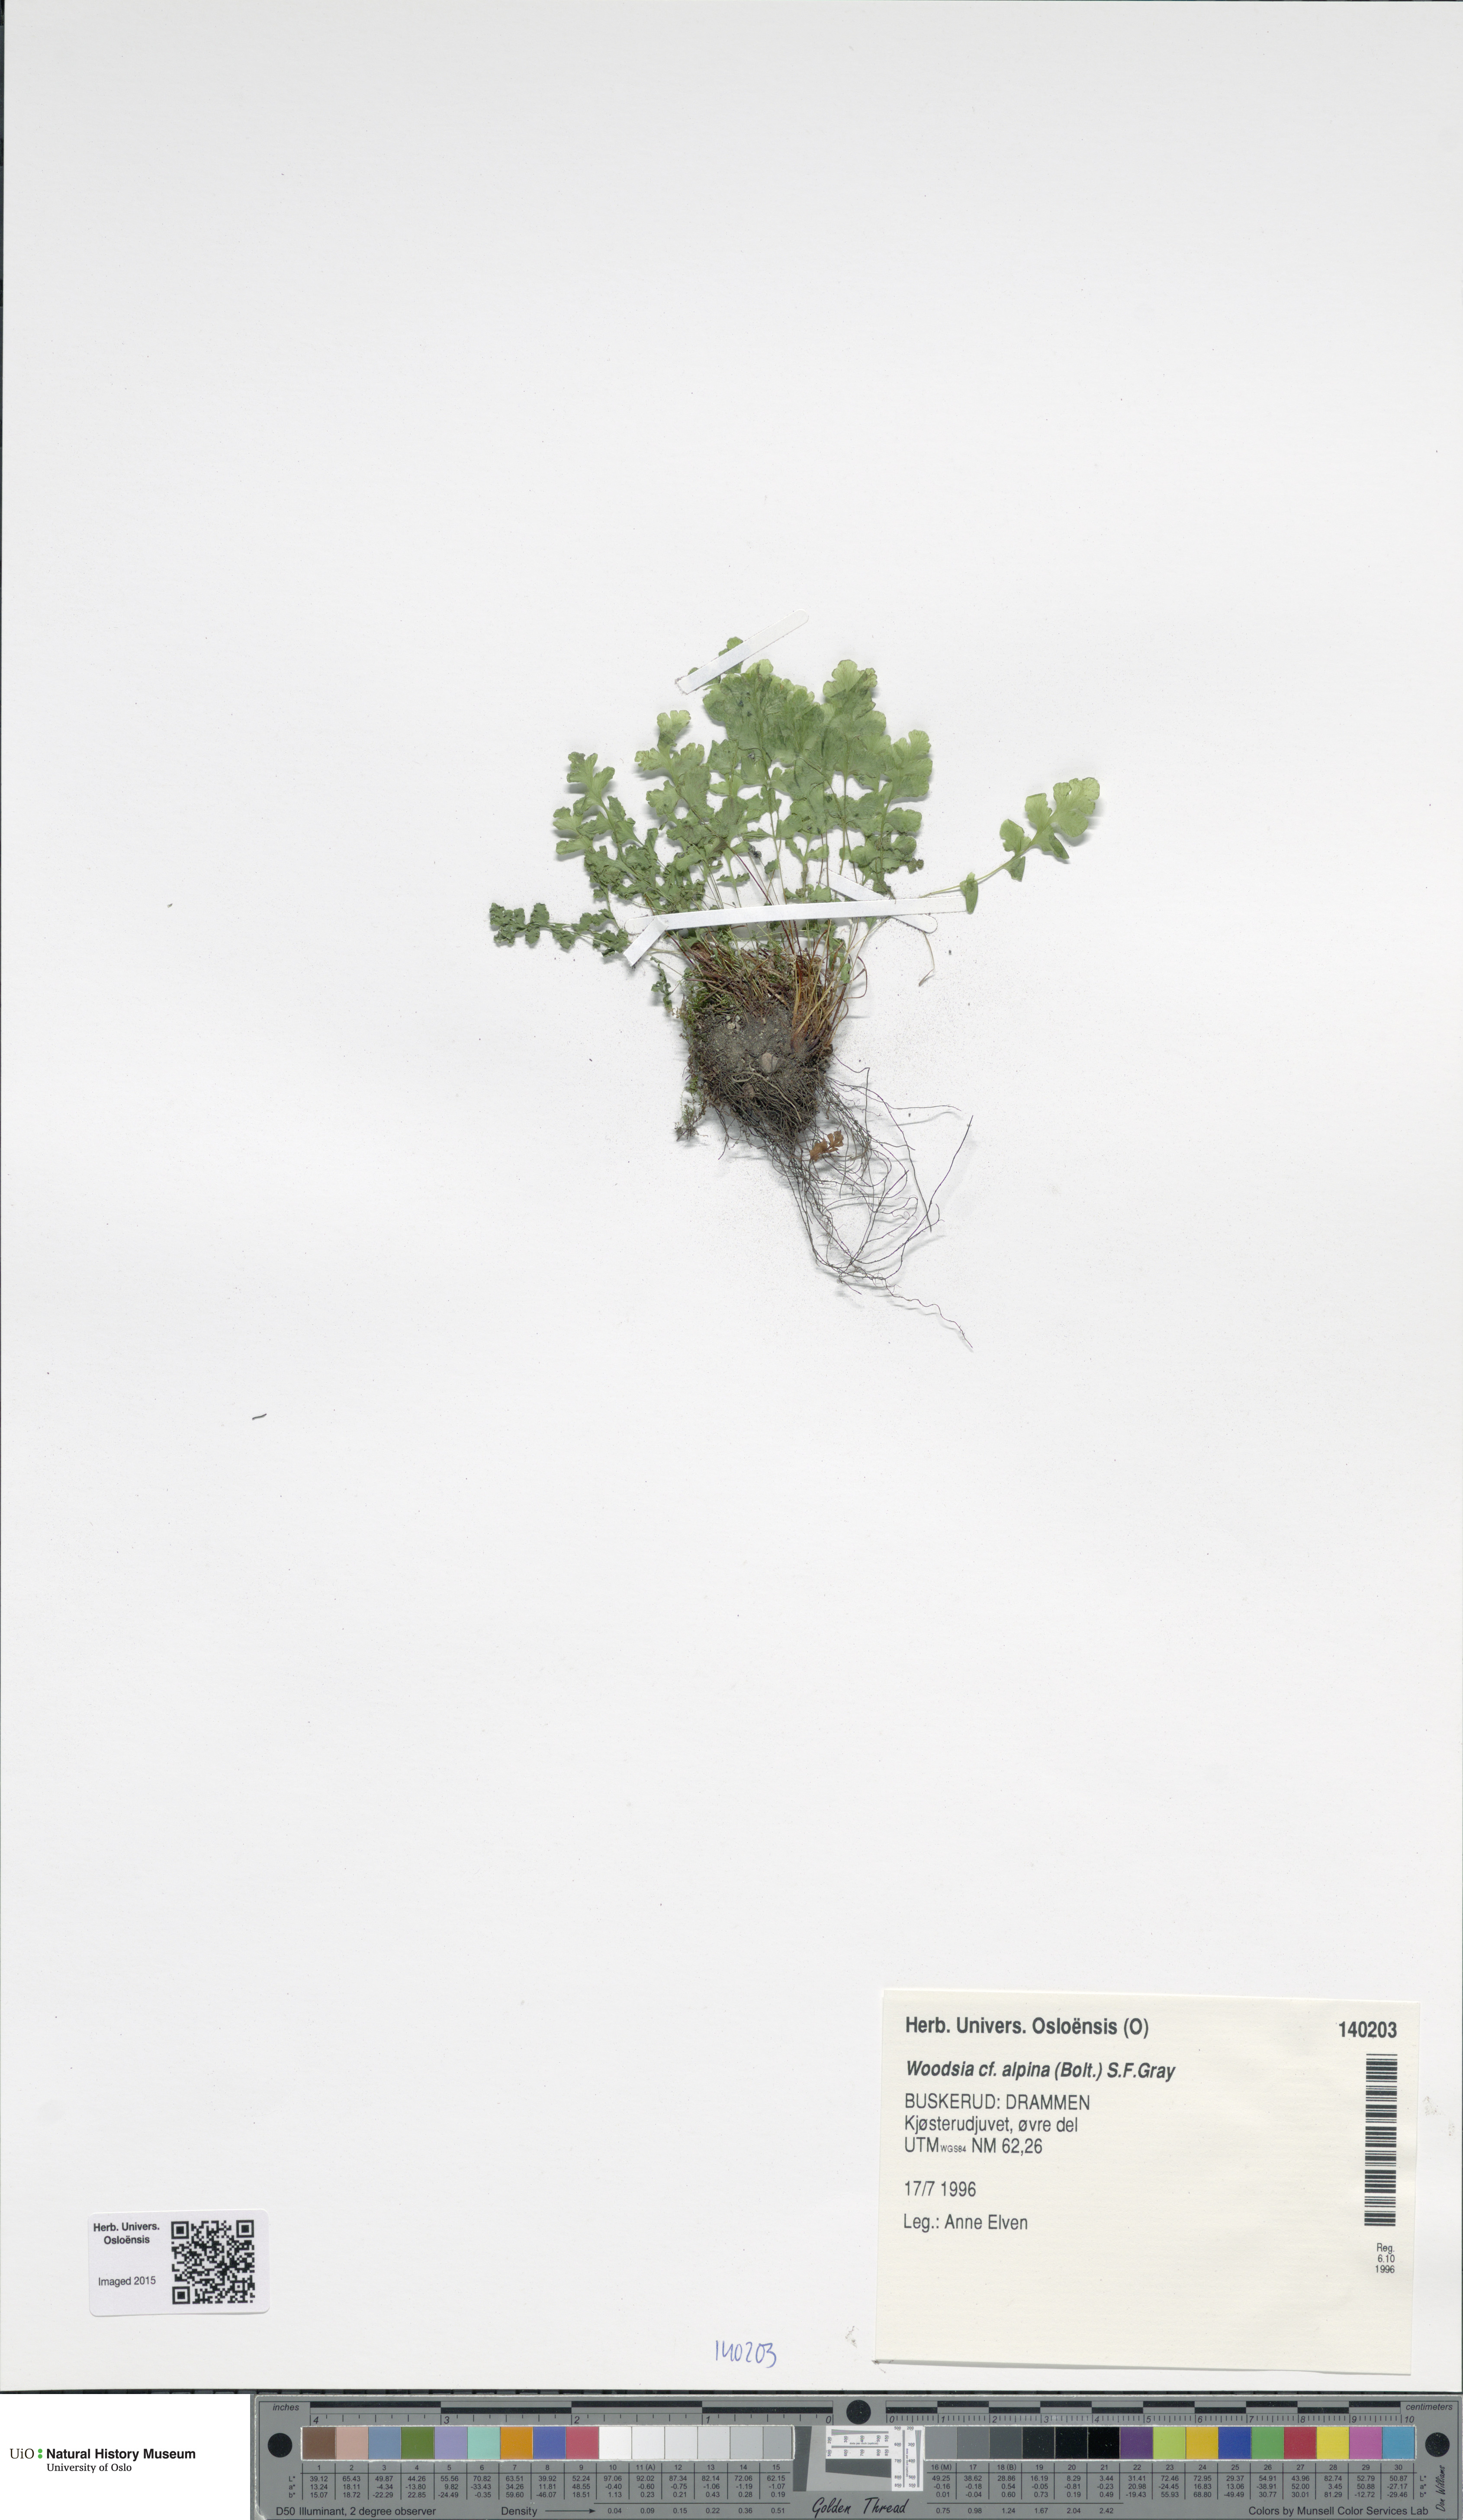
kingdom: Plantae
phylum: Tracheophyta
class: Polypodiopsida
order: Polypodiales
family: Woodsiaceae
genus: Woodsia
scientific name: Woodsia alpina
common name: Alpine woodsia
